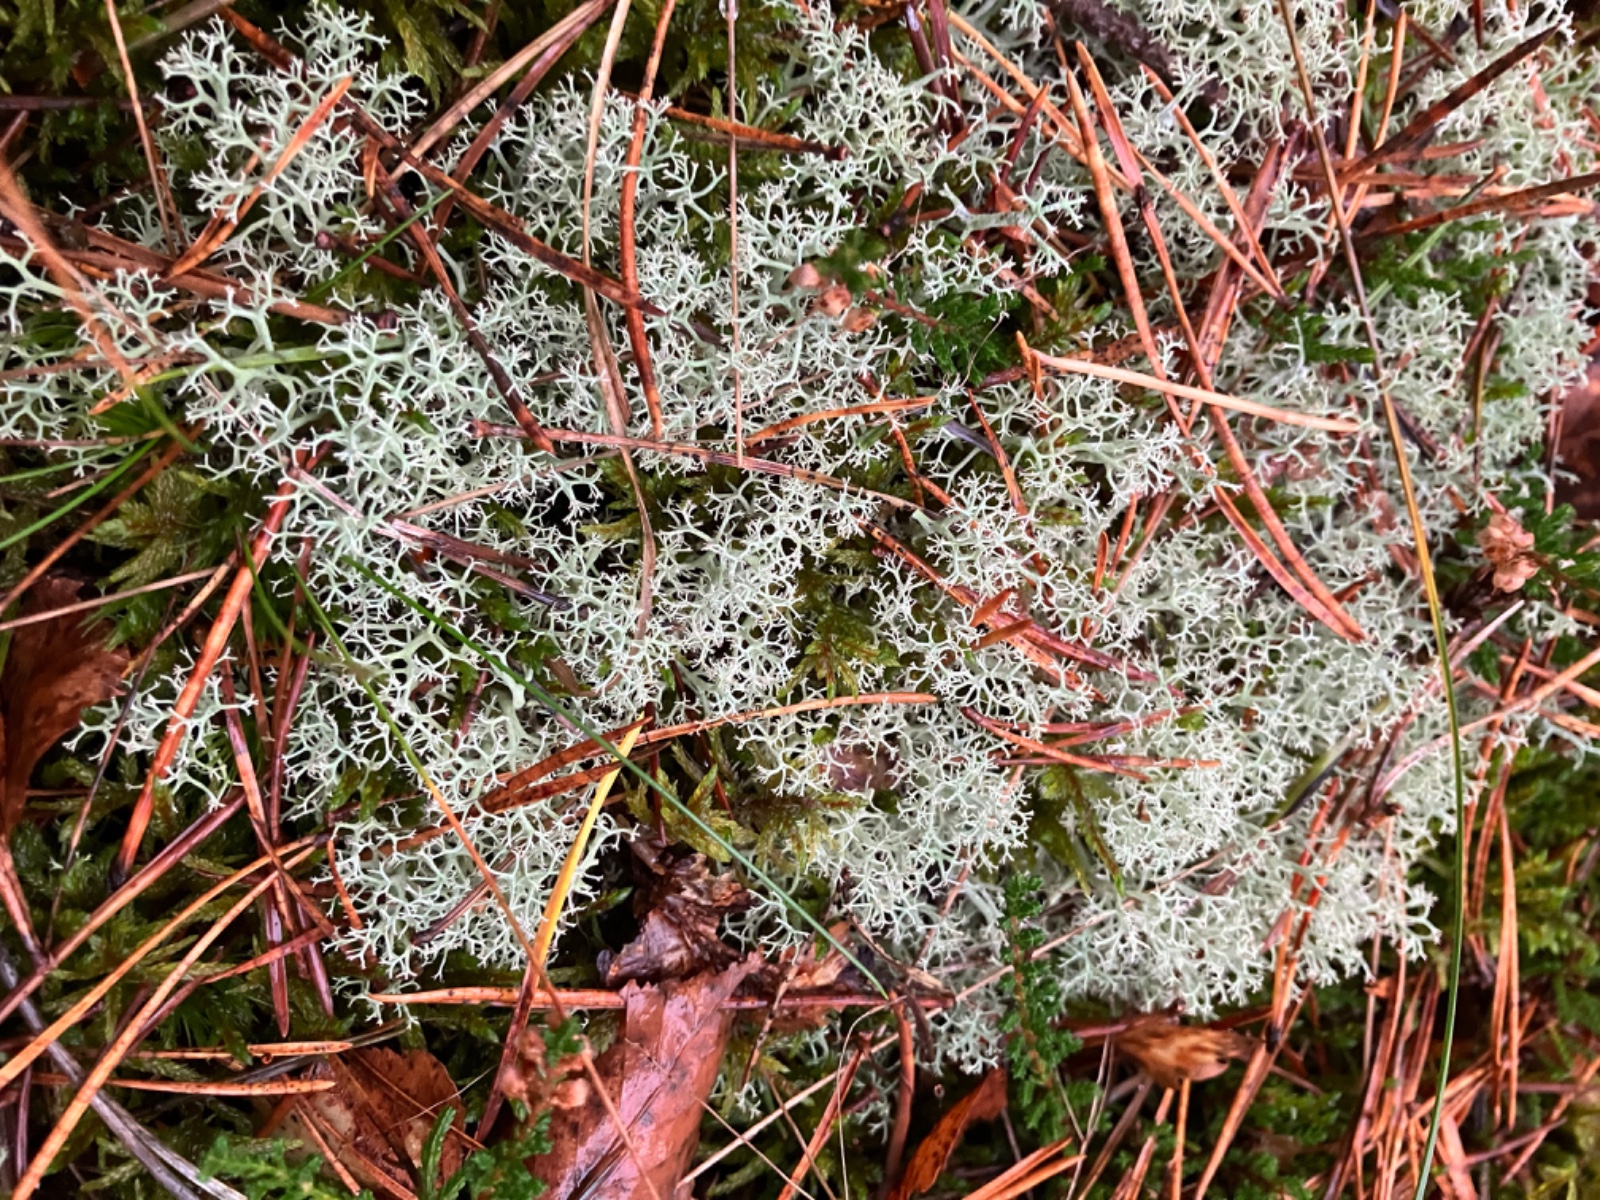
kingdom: Fungi
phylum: Ascomycota
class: Lecanoromycetes
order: Lecanorales
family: Cladoniaceae
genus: Cladonia
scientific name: Cladonia portentosa
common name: hede-rensdyrlav
